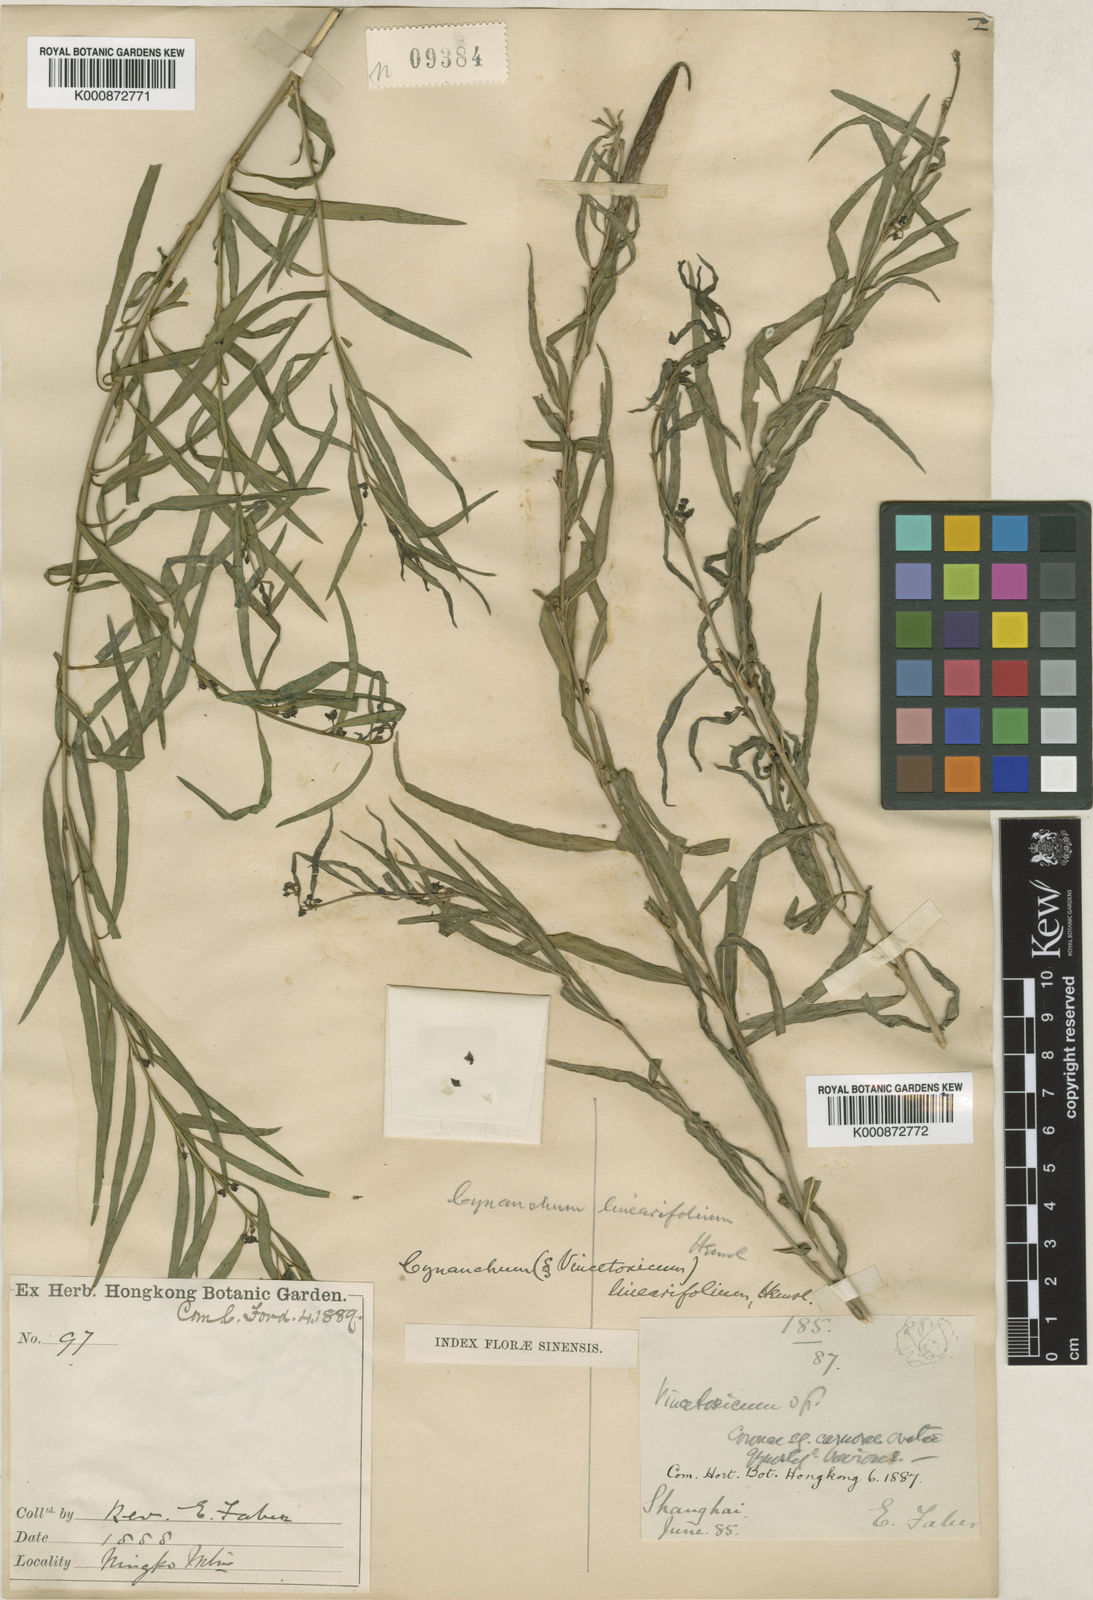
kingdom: Plantae
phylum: Tracheophyta
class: Magnoliopsida
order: Gentianales
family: Apocynaceae
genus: Vincetoxicum
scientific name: Vincetoxicum stauntonii
